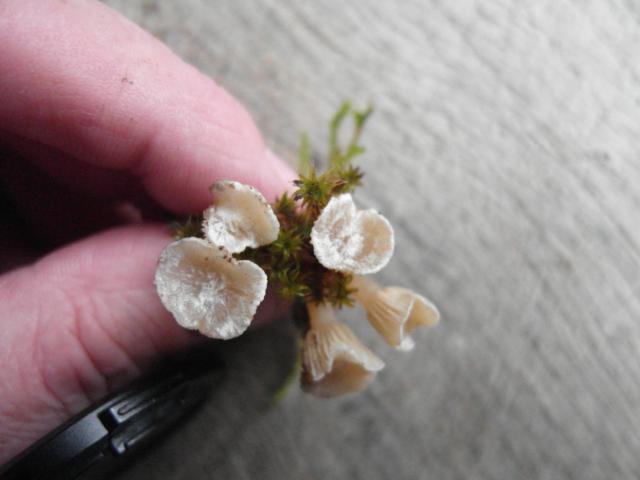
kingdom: Fungi
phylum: Basidiomycota
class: Agaricomycetes
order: Agaricales
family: Tricholomataceae
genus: Ripartites
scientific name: Ripartites tricholoma
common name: almindelig skæghat
